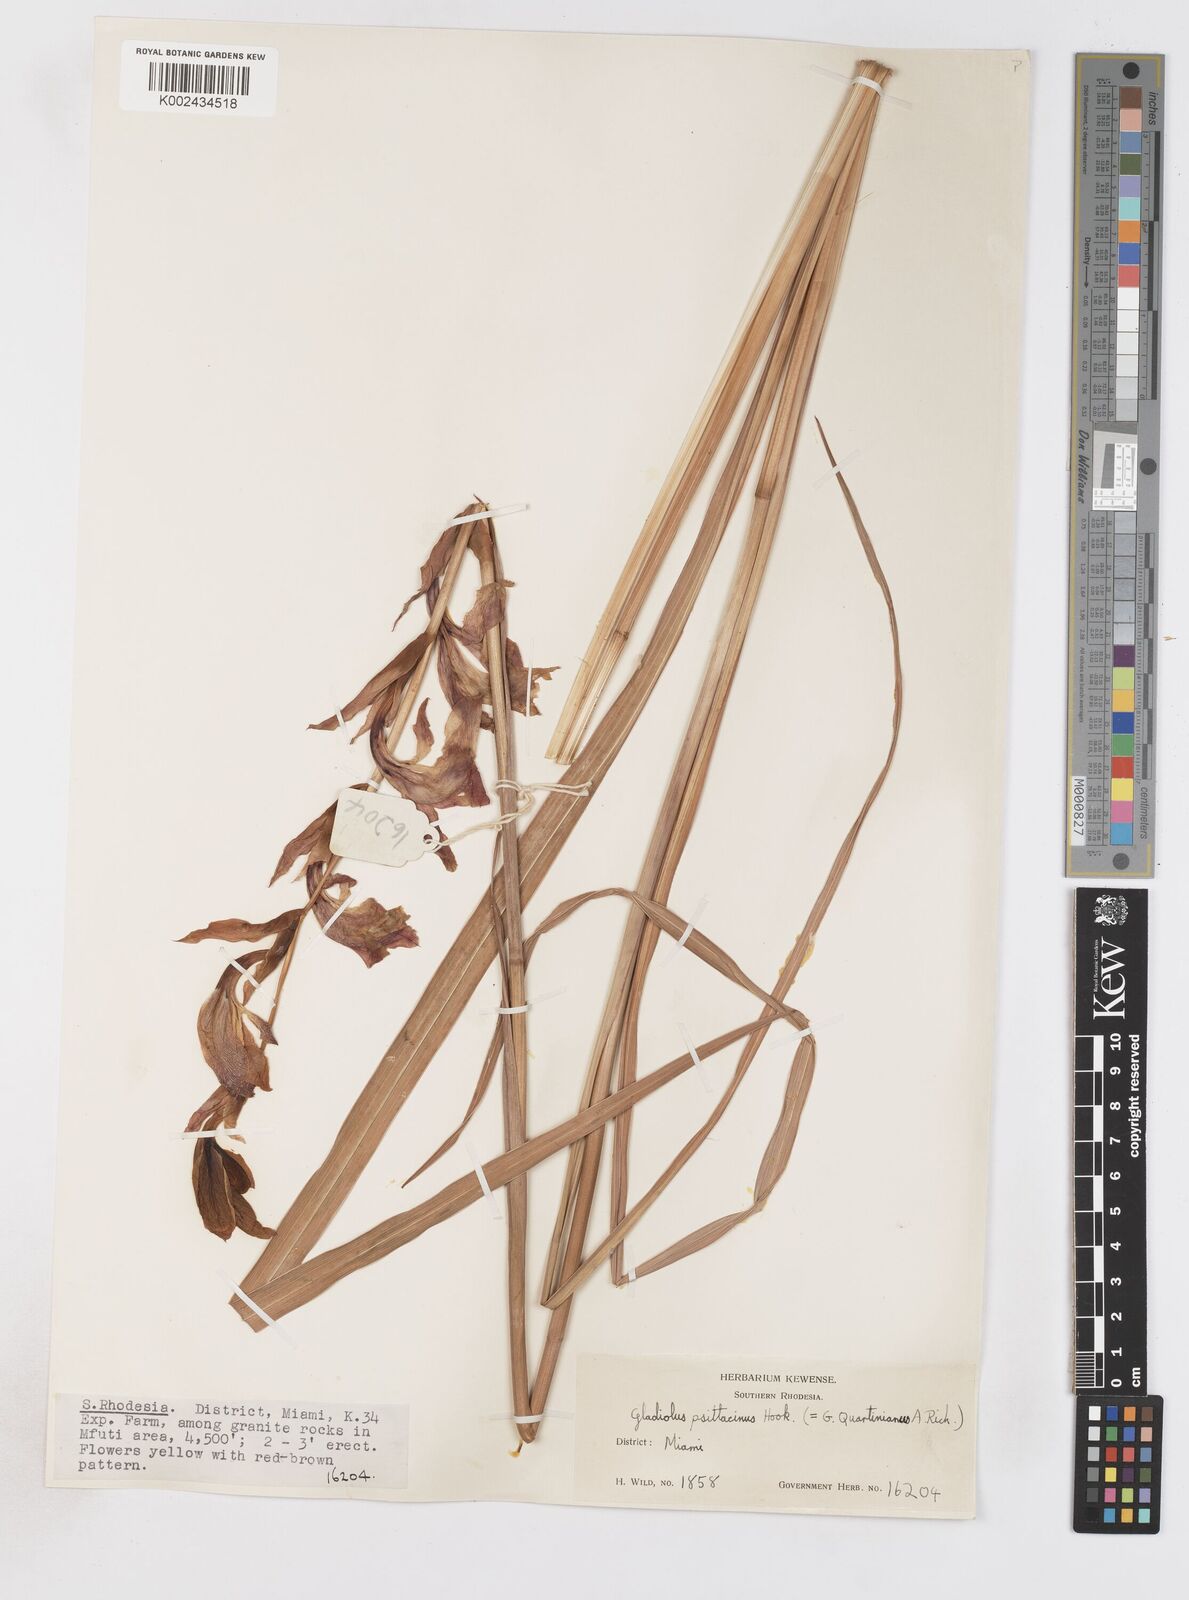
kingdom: Plantae
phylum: Tracheophyta
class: Liliopsida
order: Asparagales
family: Iridaceae
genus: Gladiolus
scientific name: Gladiolus dalenii
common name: Cornflag
